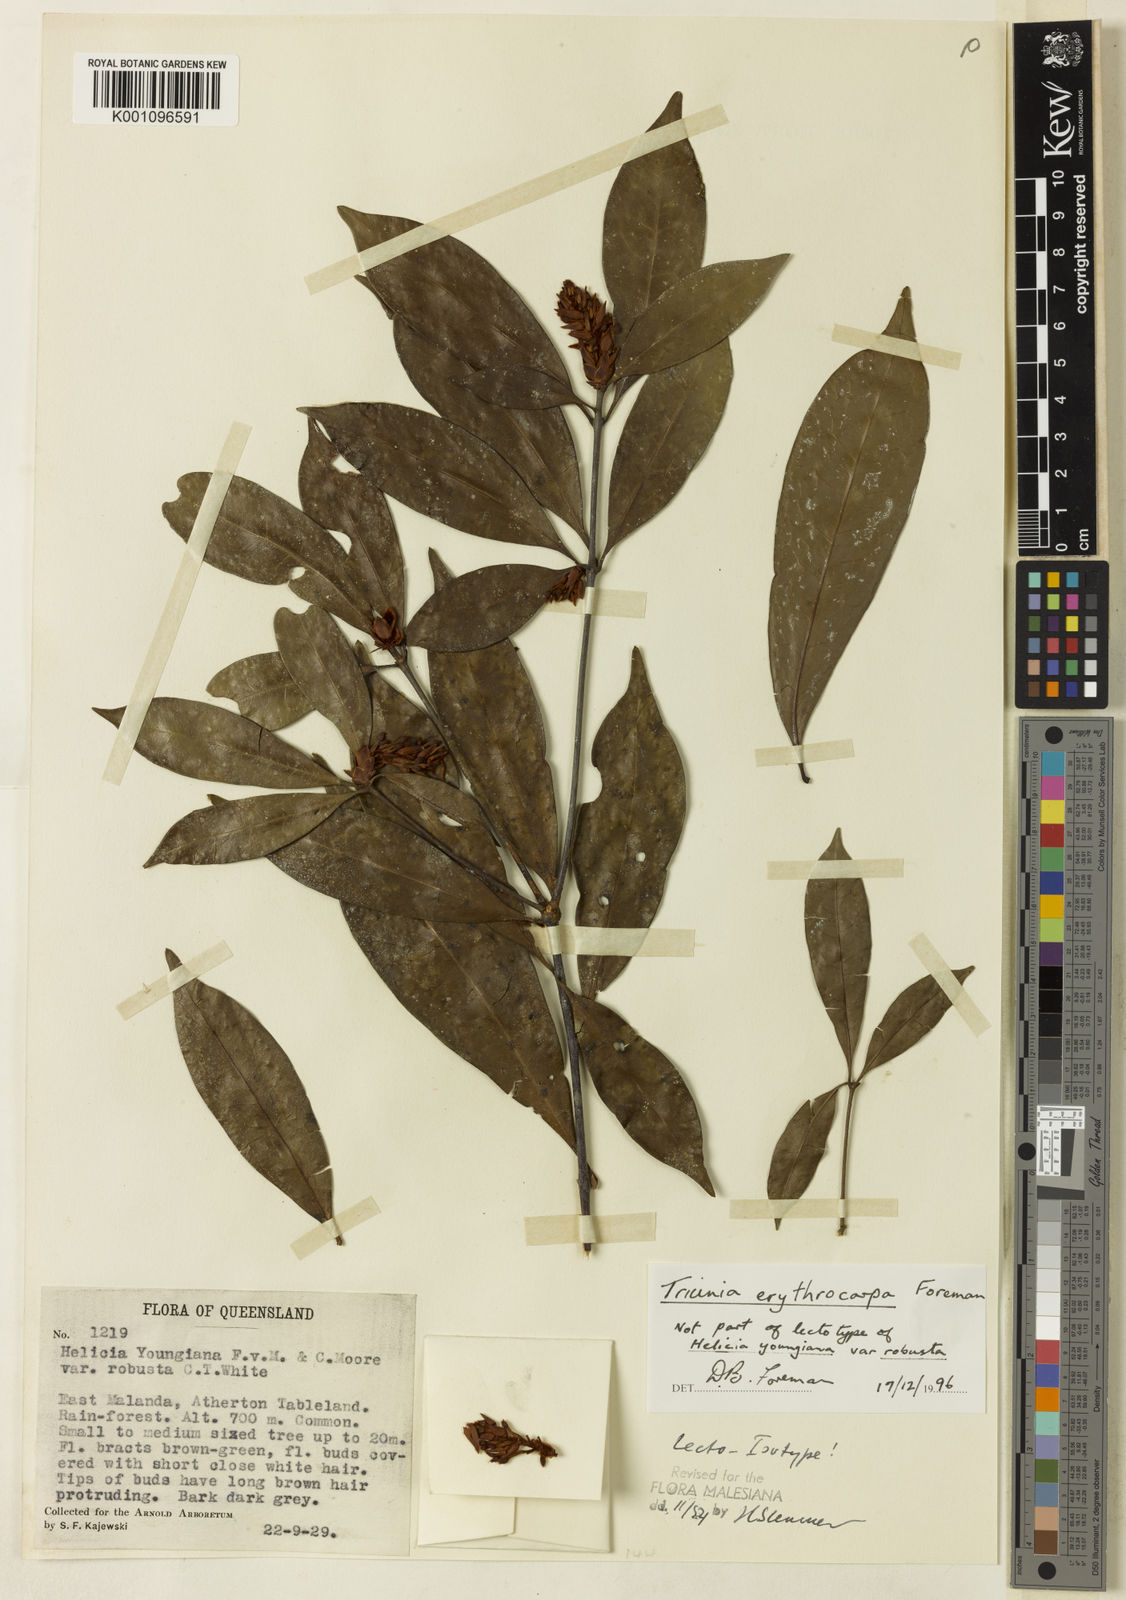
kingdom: Plantae
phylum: Tracheophyta
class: Magnoliopsida
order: Proteales
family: Proteaceae
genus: Triunia
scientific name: Triunia erythrocarpa
